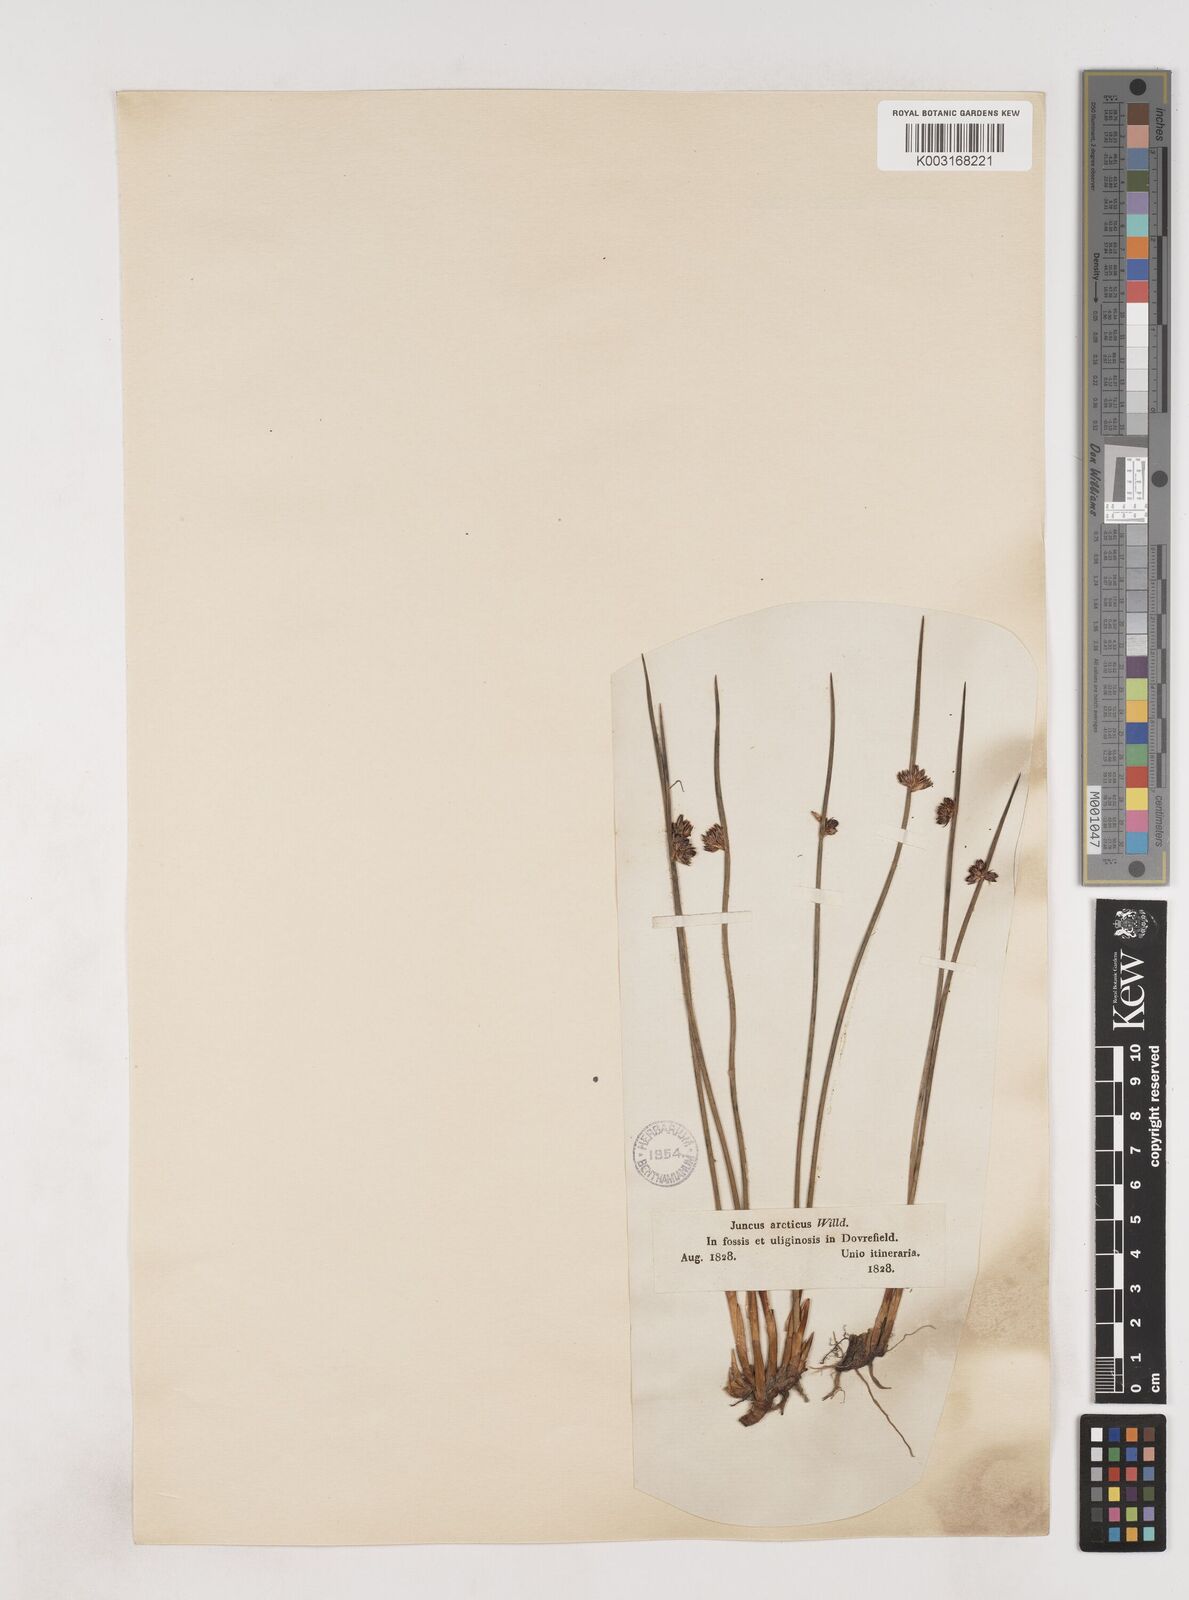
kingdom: Plantae
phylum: Tracheophyta
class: Liliopsida
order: Poales
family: Juncaceae
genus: Juncus
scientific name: Juncus arcticus
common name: Arctic rush
